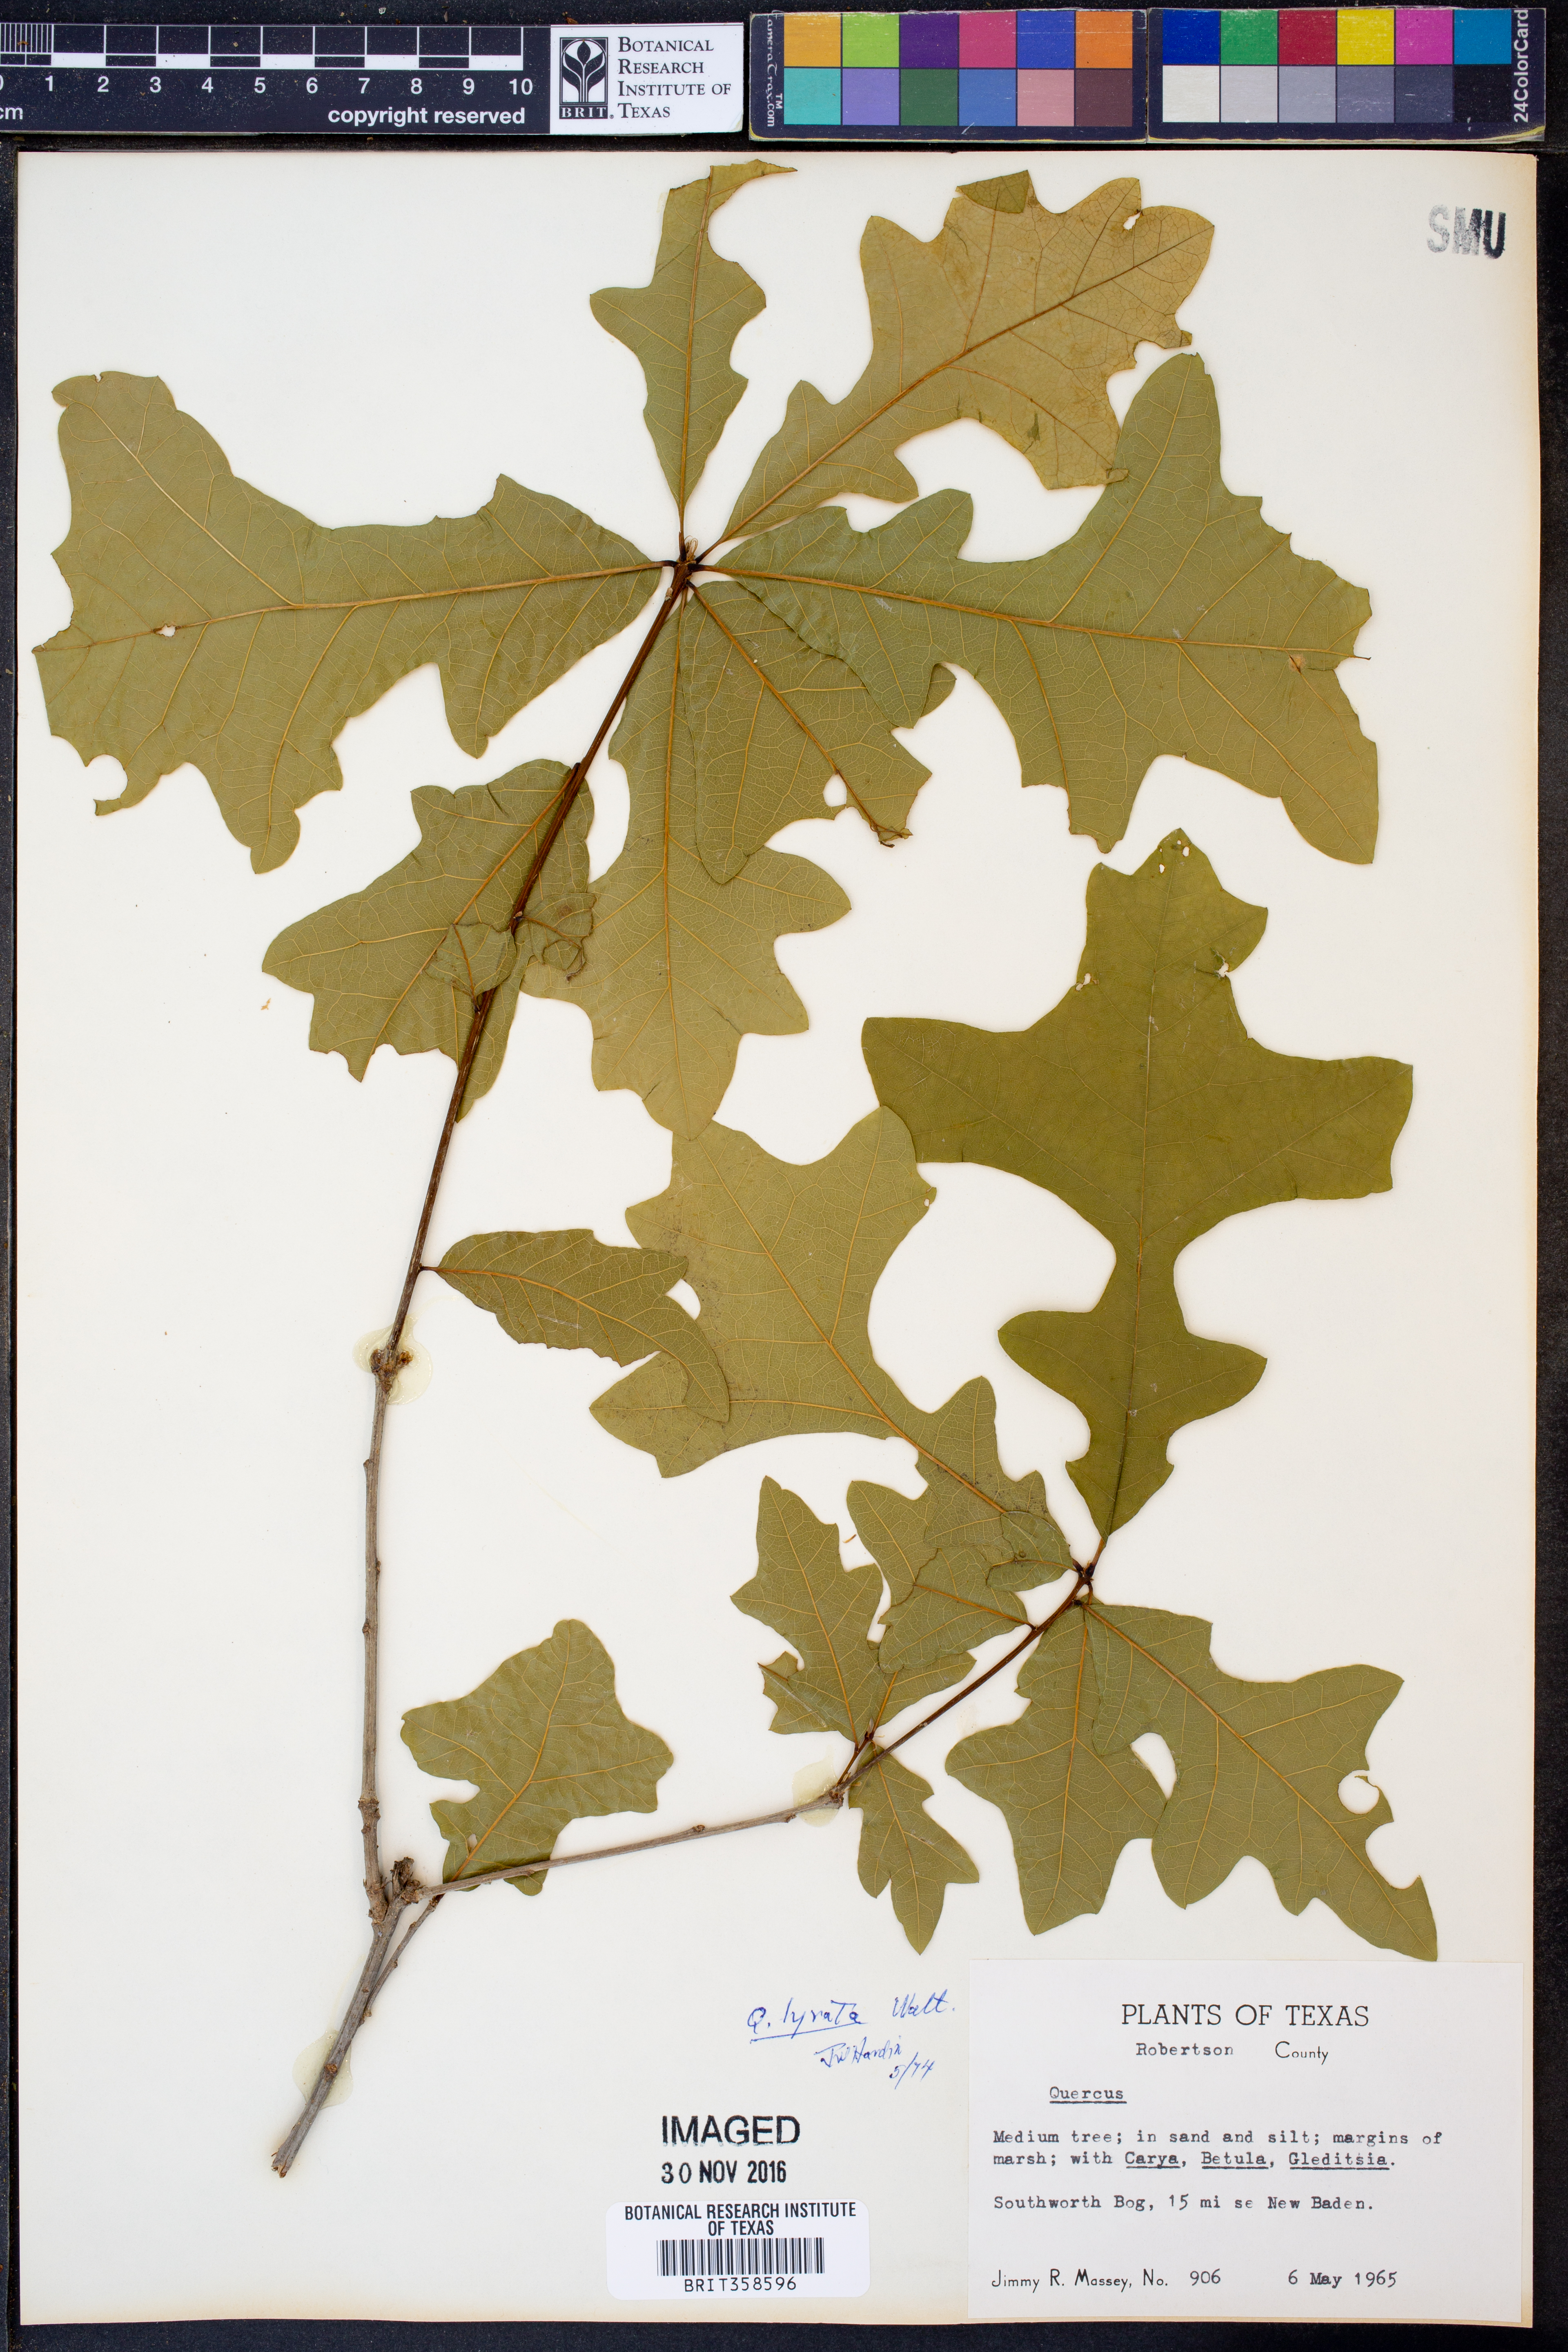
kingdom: Plantae
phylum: Tracheophyta
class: Magnoliopsida
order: Fagales
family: Fagaceae
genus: Quercus
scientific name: Quercus lyrata
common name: Overcup oak
